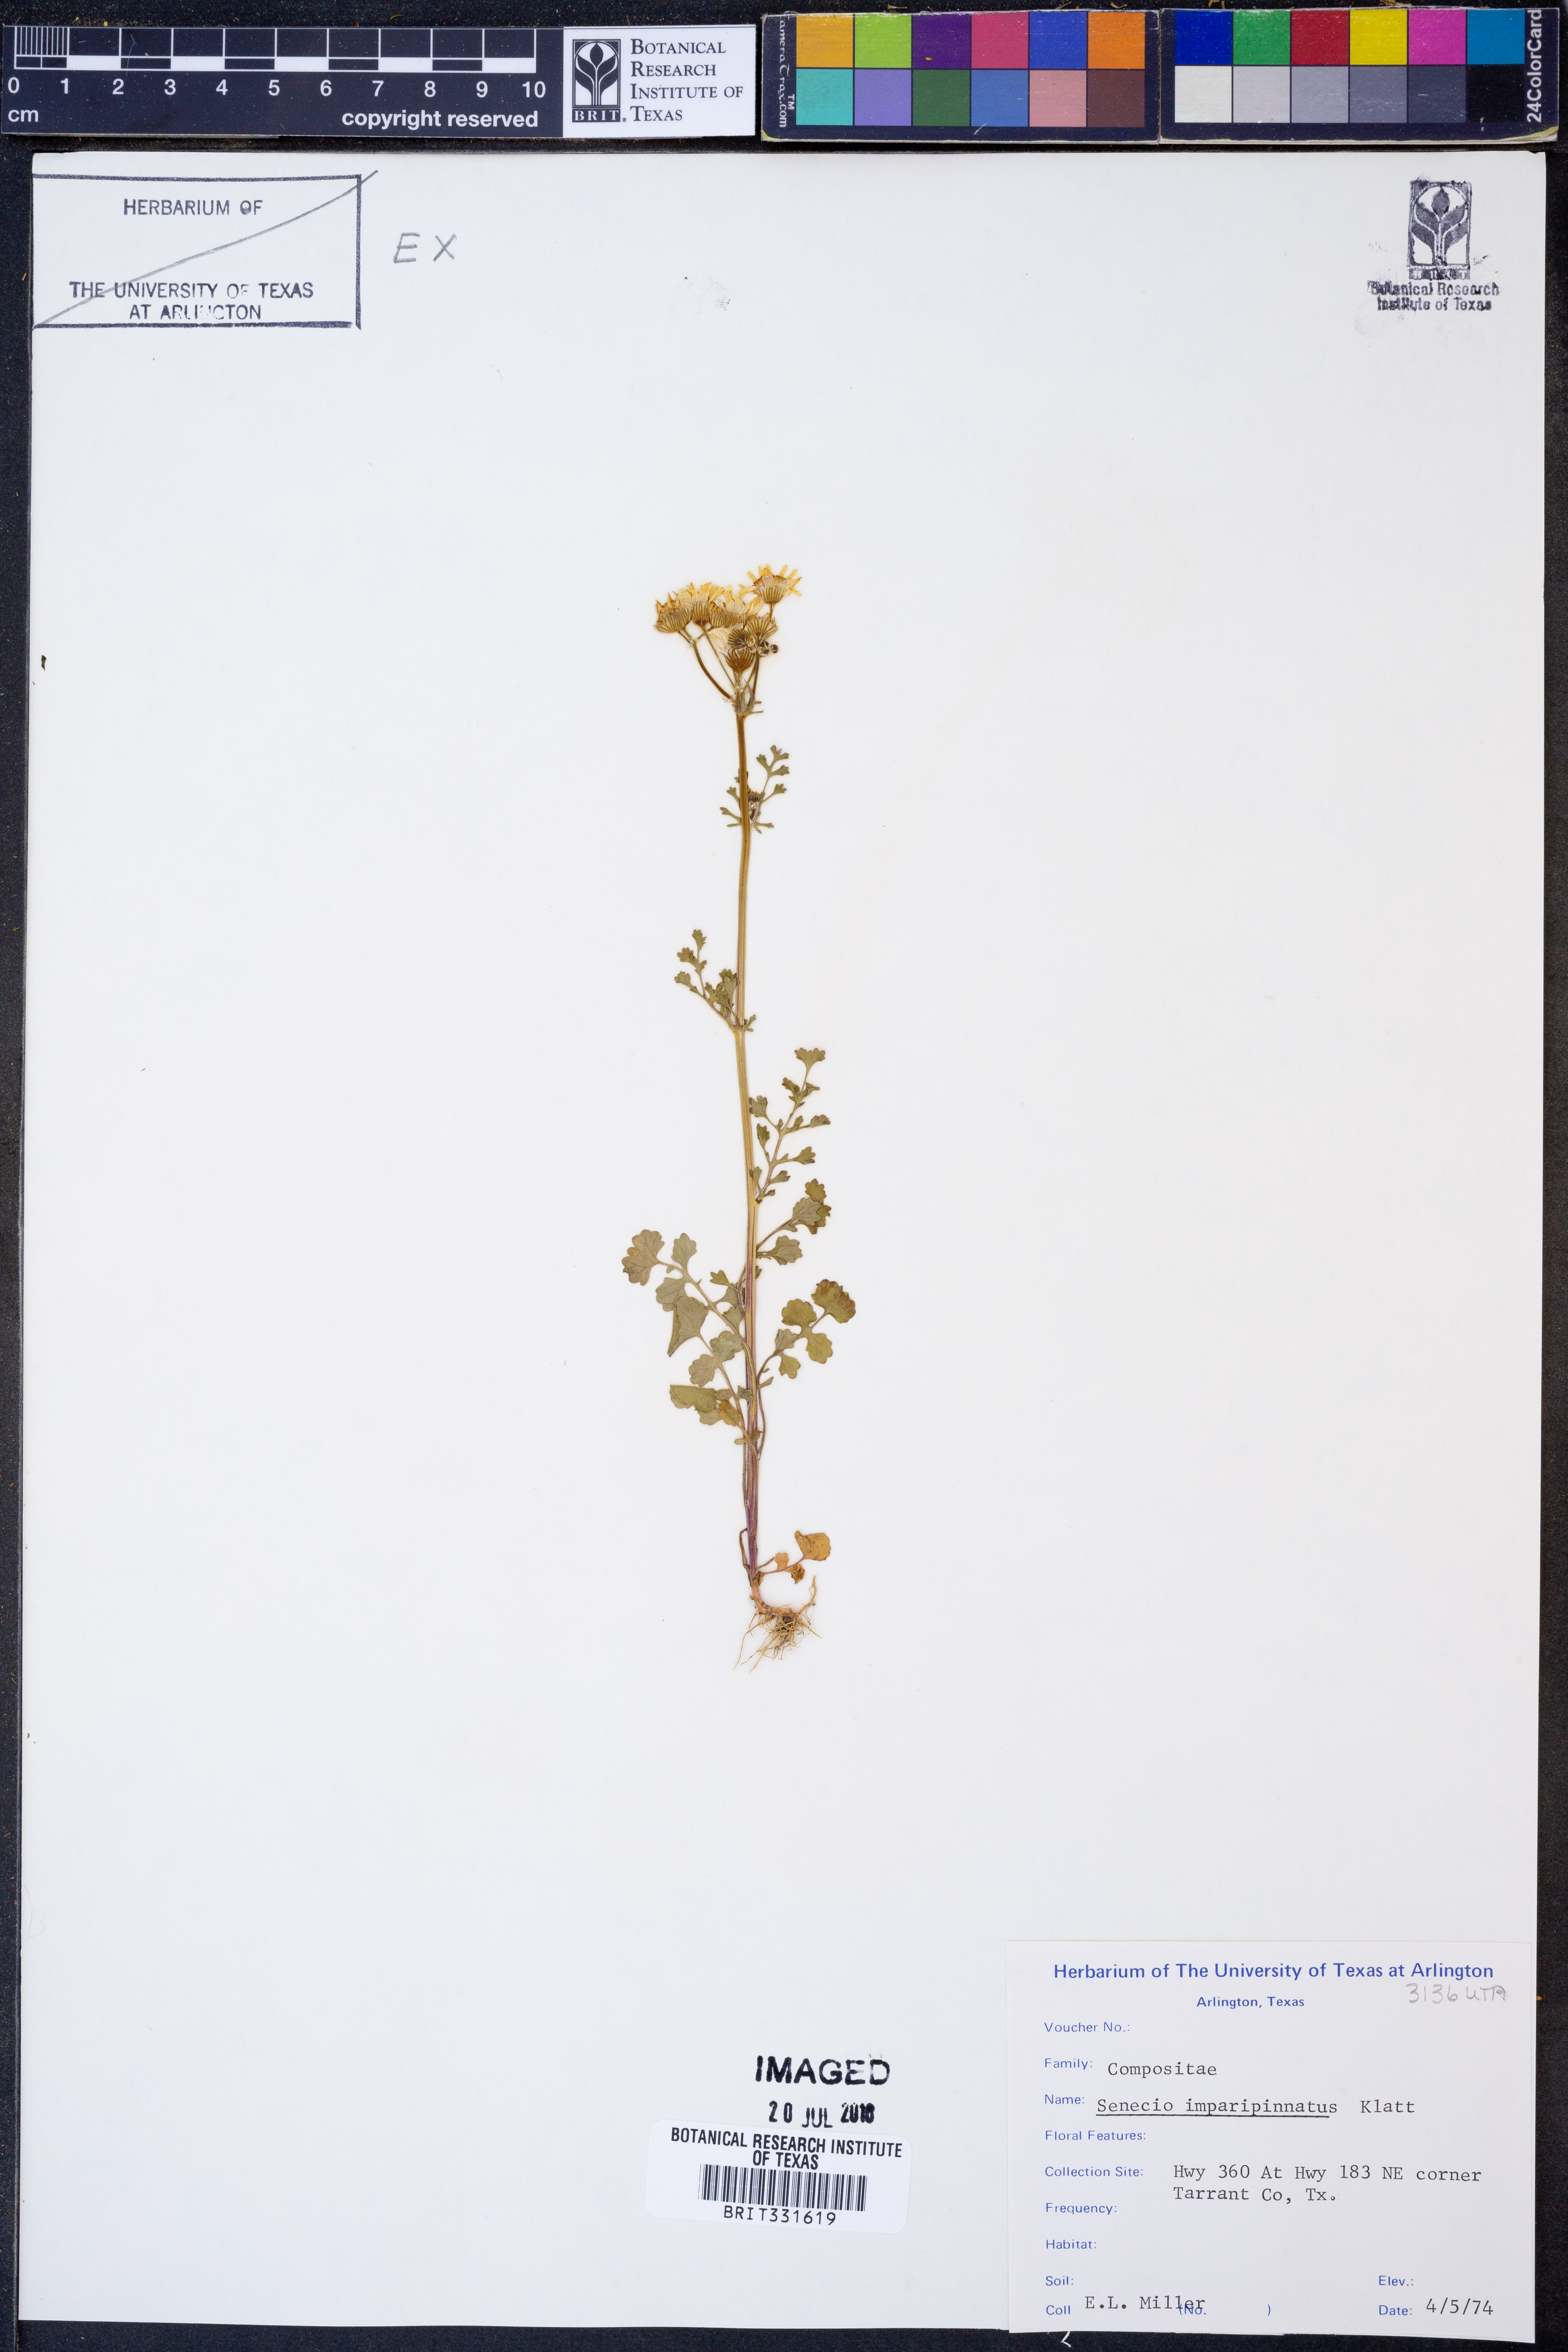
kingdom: Plantae
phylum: Tracheophyta
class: Magnoliopsida
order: Asterales
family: Asteraceae
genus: Packera
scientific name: Packera tampicana
